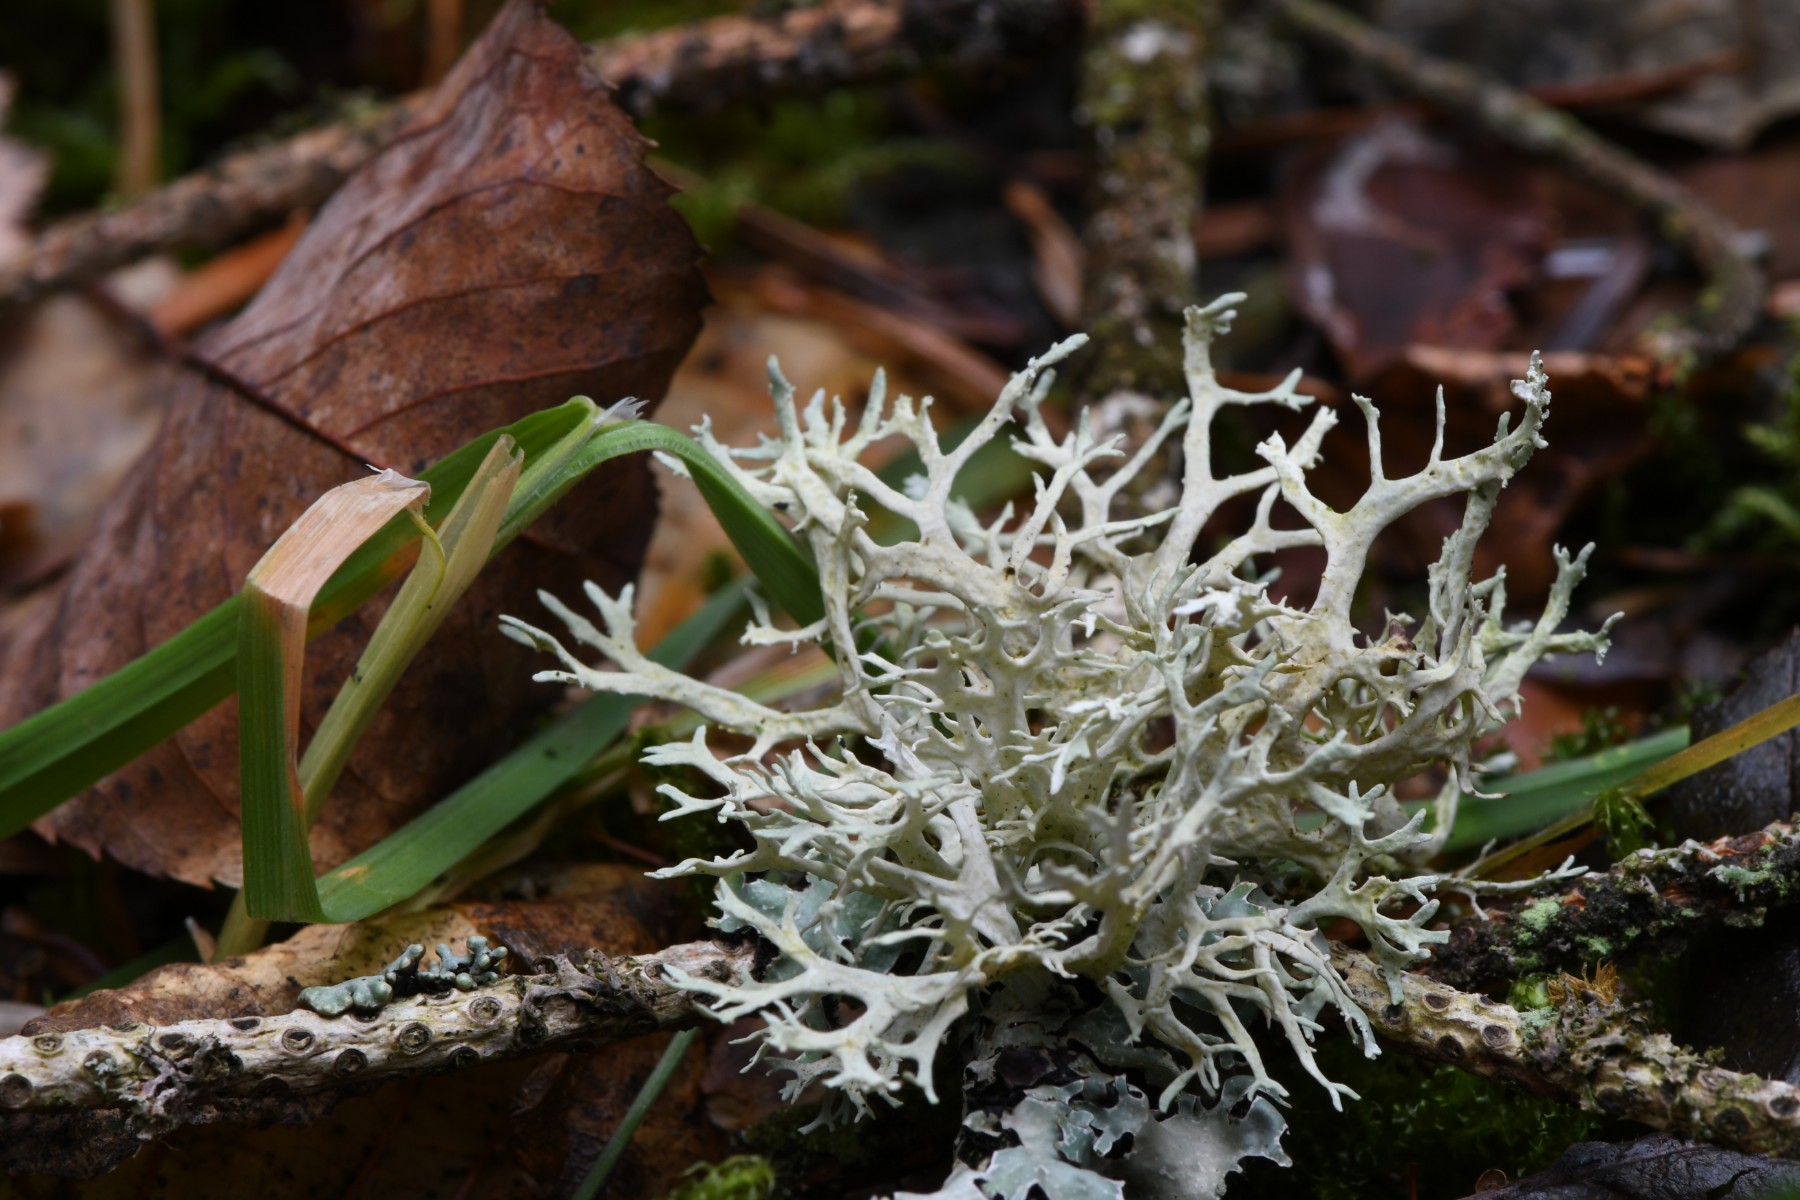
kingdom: Fungi
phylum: Ascomycota
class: Lecanoromycetes
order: Lecanorales
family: Parmeliaceae
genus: Evernia
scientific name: Evernia prunastri
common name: almindelig slåenlav
